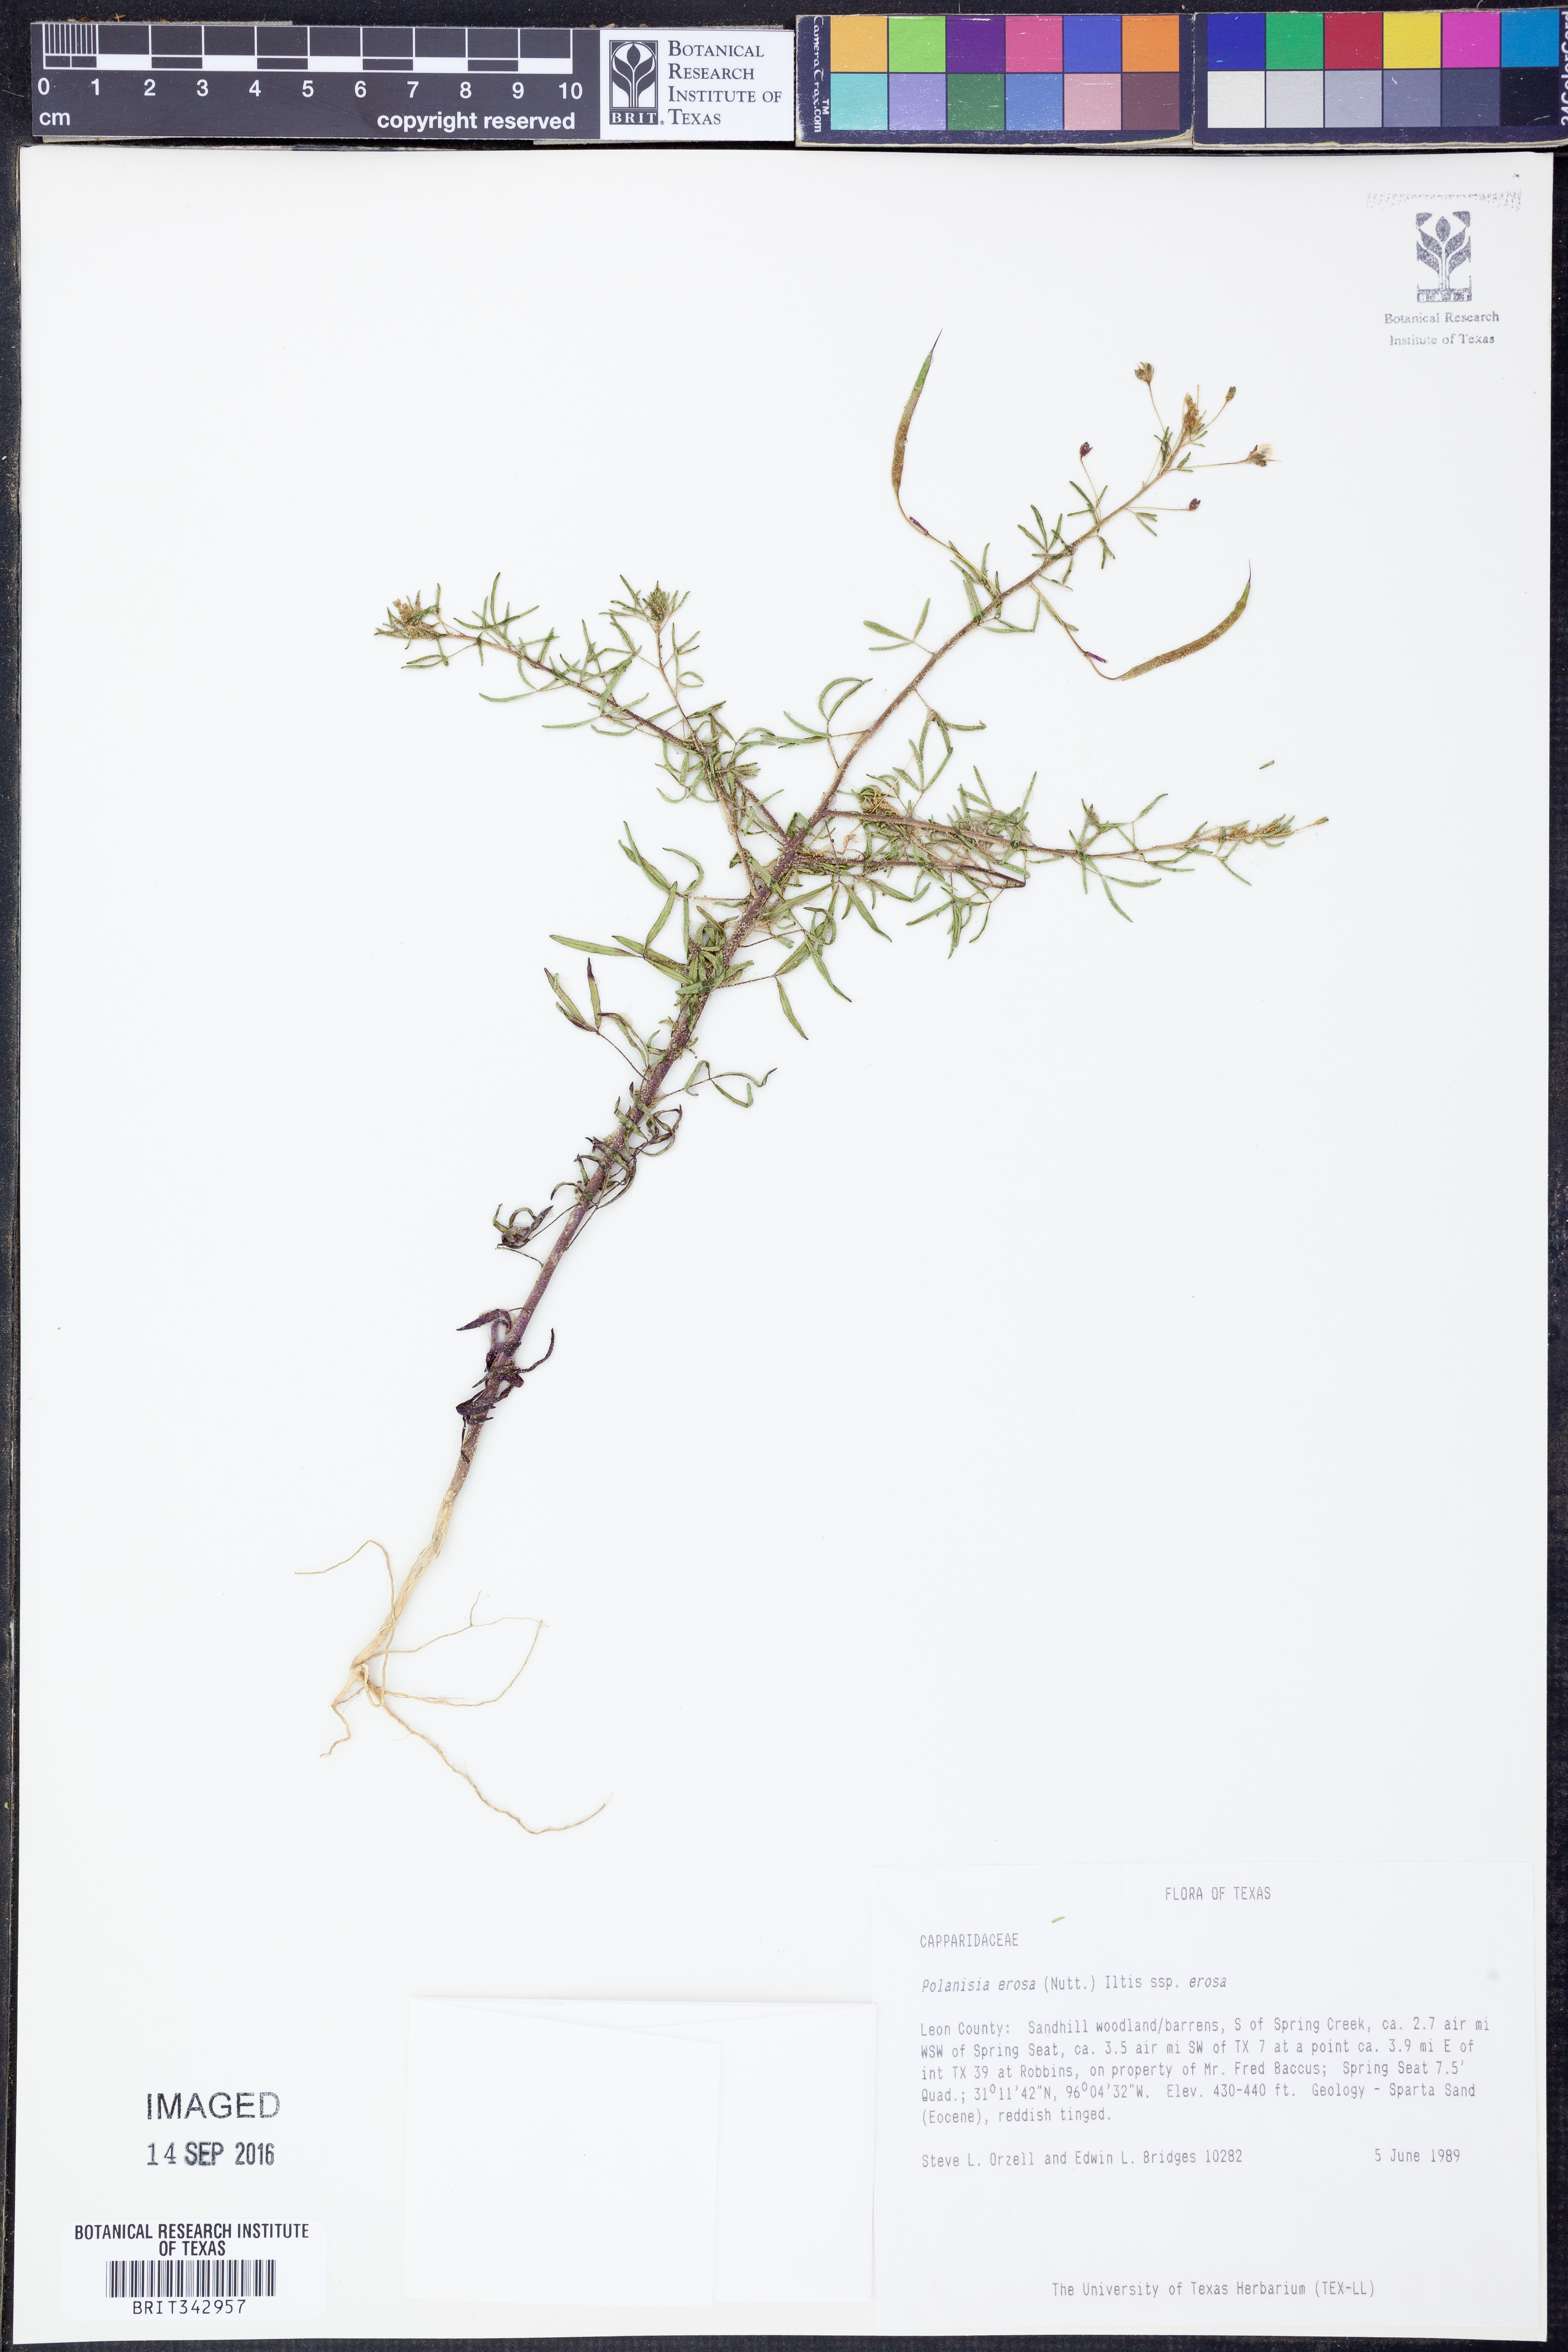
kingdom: Plantae
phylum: Tracheophyta
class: Magnoliopsida
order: Brassicales
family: Cleomaceae
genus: Polanisia
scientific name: Polanisia erosa
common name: Large clammyweed
